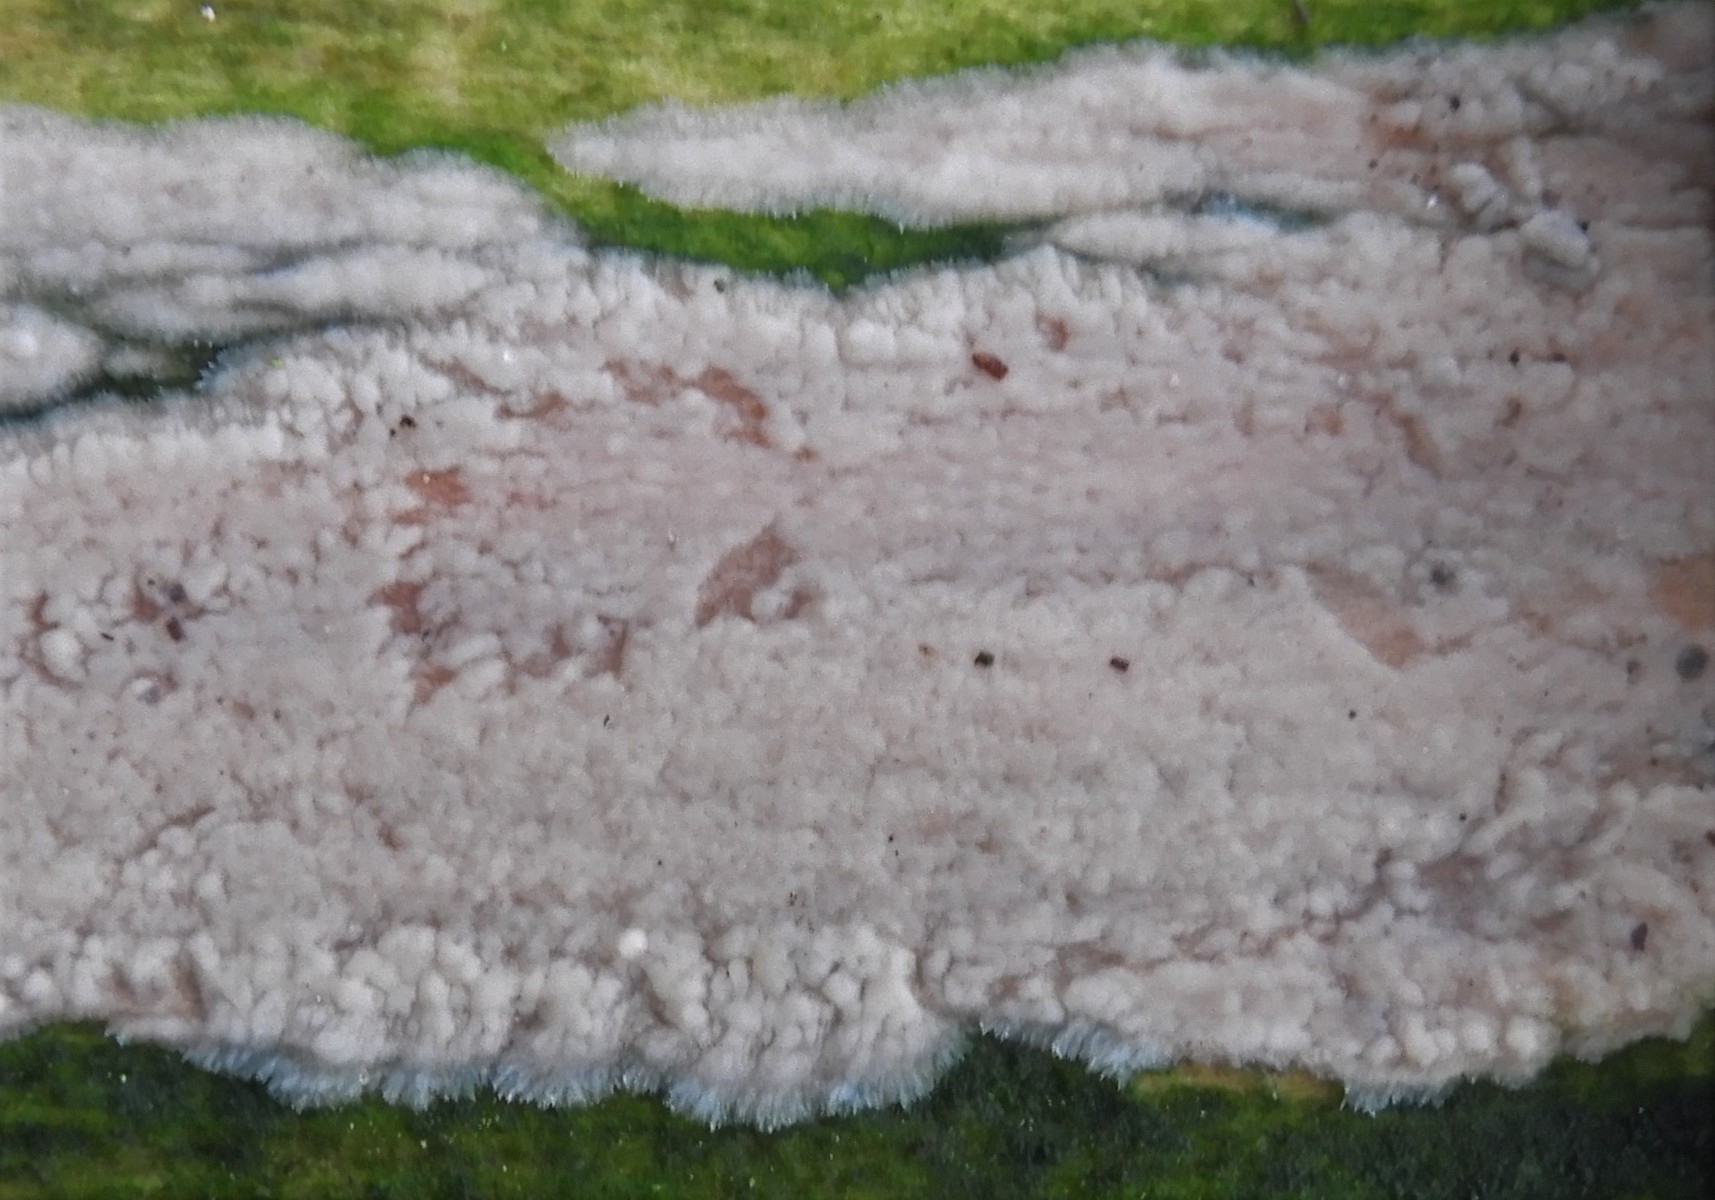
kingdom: Fungi
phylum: Basidiomycota
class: Agaricomycetes
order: Auriculariales
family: Auriculariaceae
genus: Exidia
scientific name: Exidia thuretiana
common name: hvidlig bævretop
